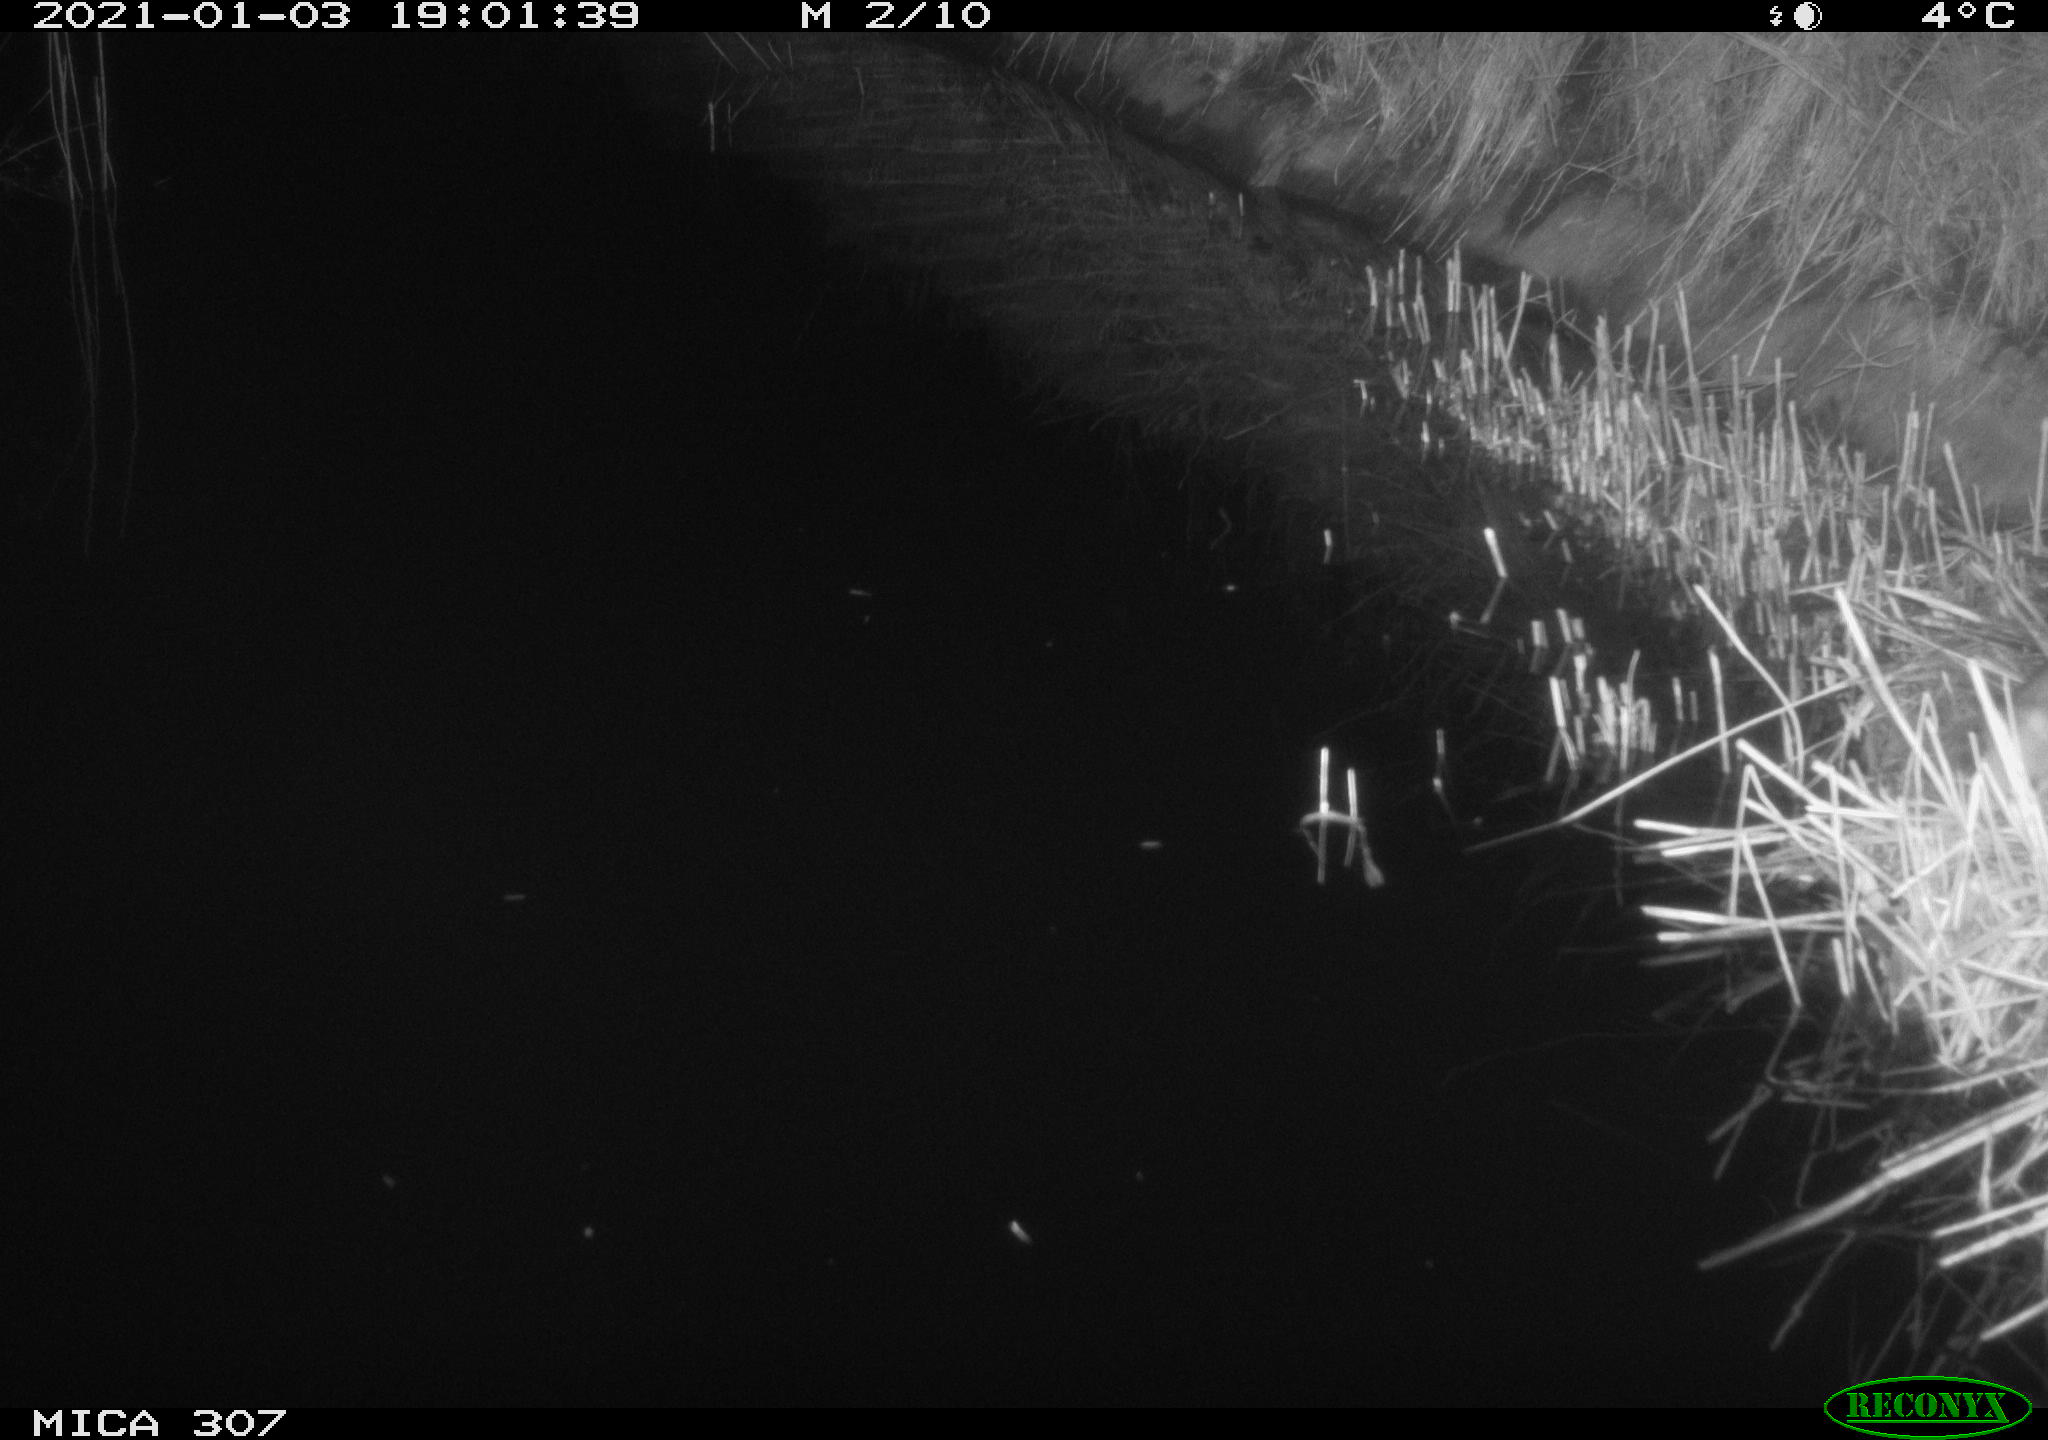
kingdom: Animalia
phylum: Chordata
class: Mammalia
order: Rodentia
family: Muridae
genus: Rattus
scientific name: Rattus norvegicus
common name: Brown rat
